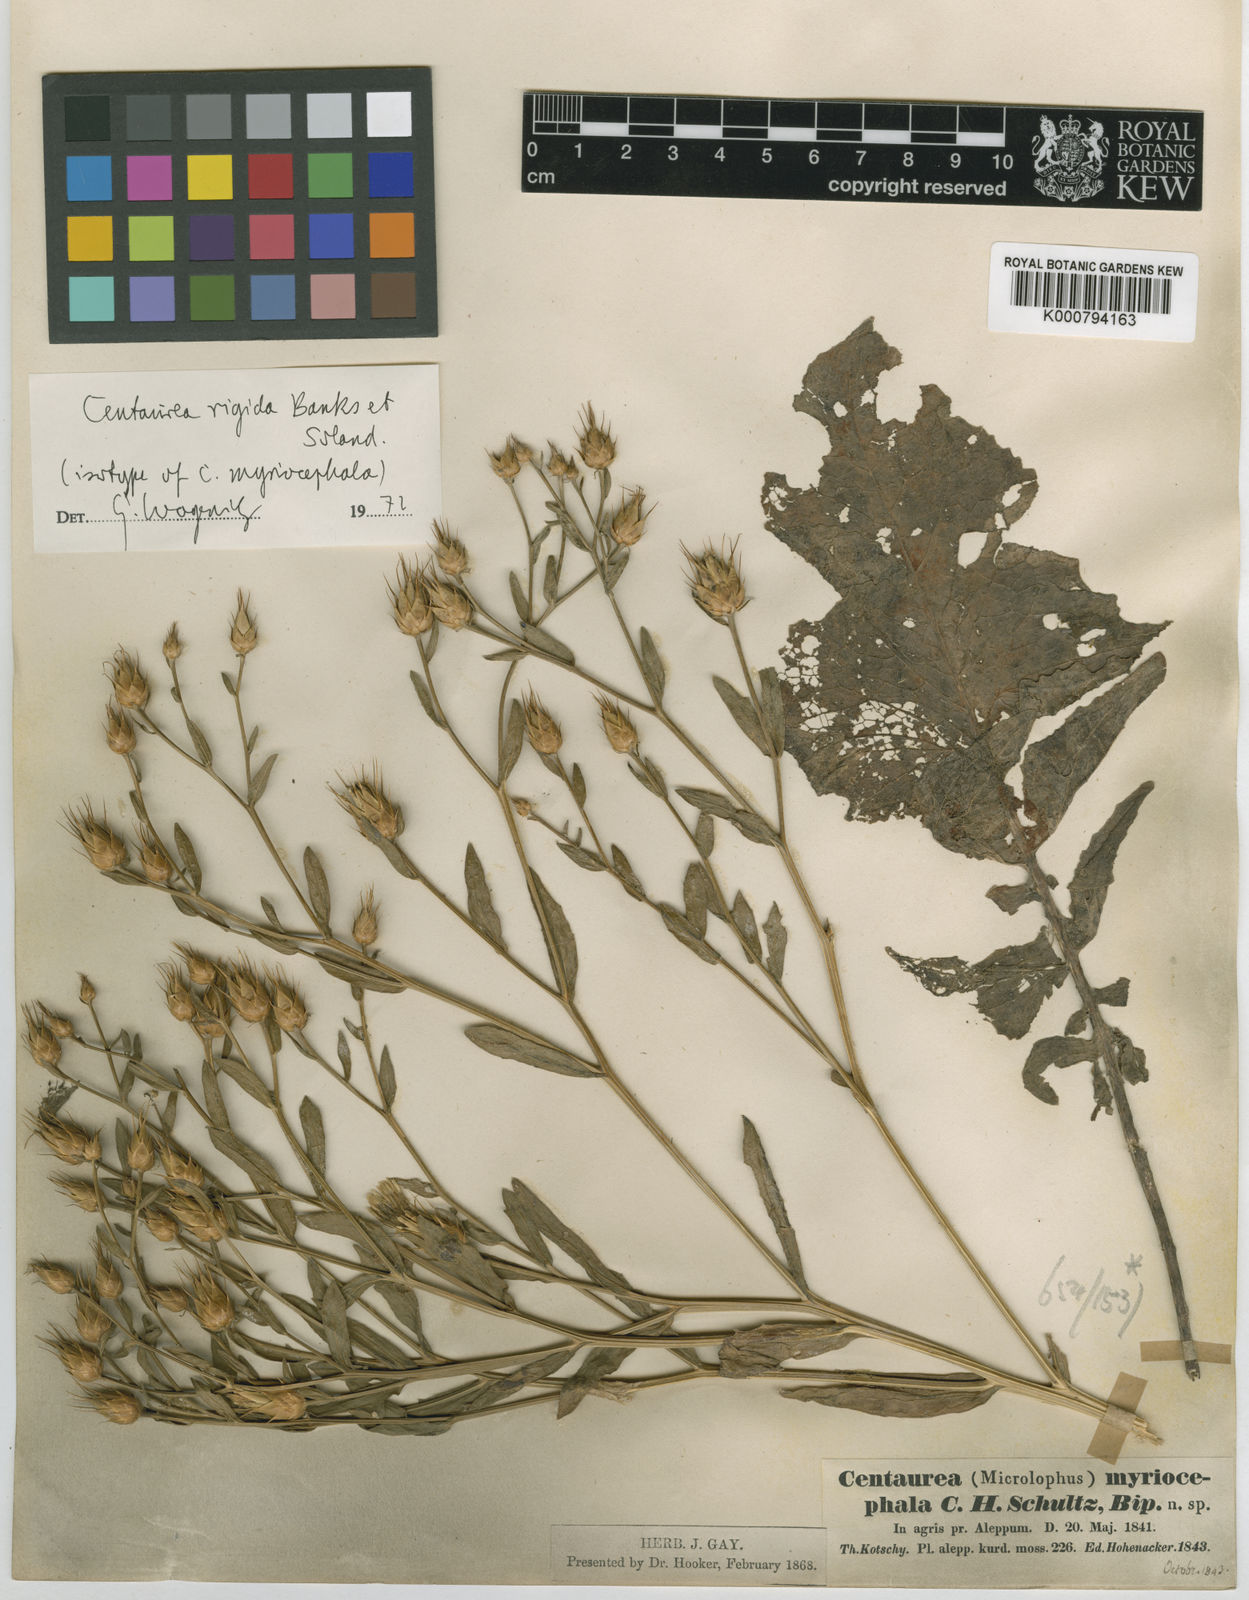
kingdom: Plantae
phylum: Tracheophyta
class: Magnoliopsida
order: Asterales
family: Asteraceae
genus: Centaurea
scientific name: Centaurea rigida
